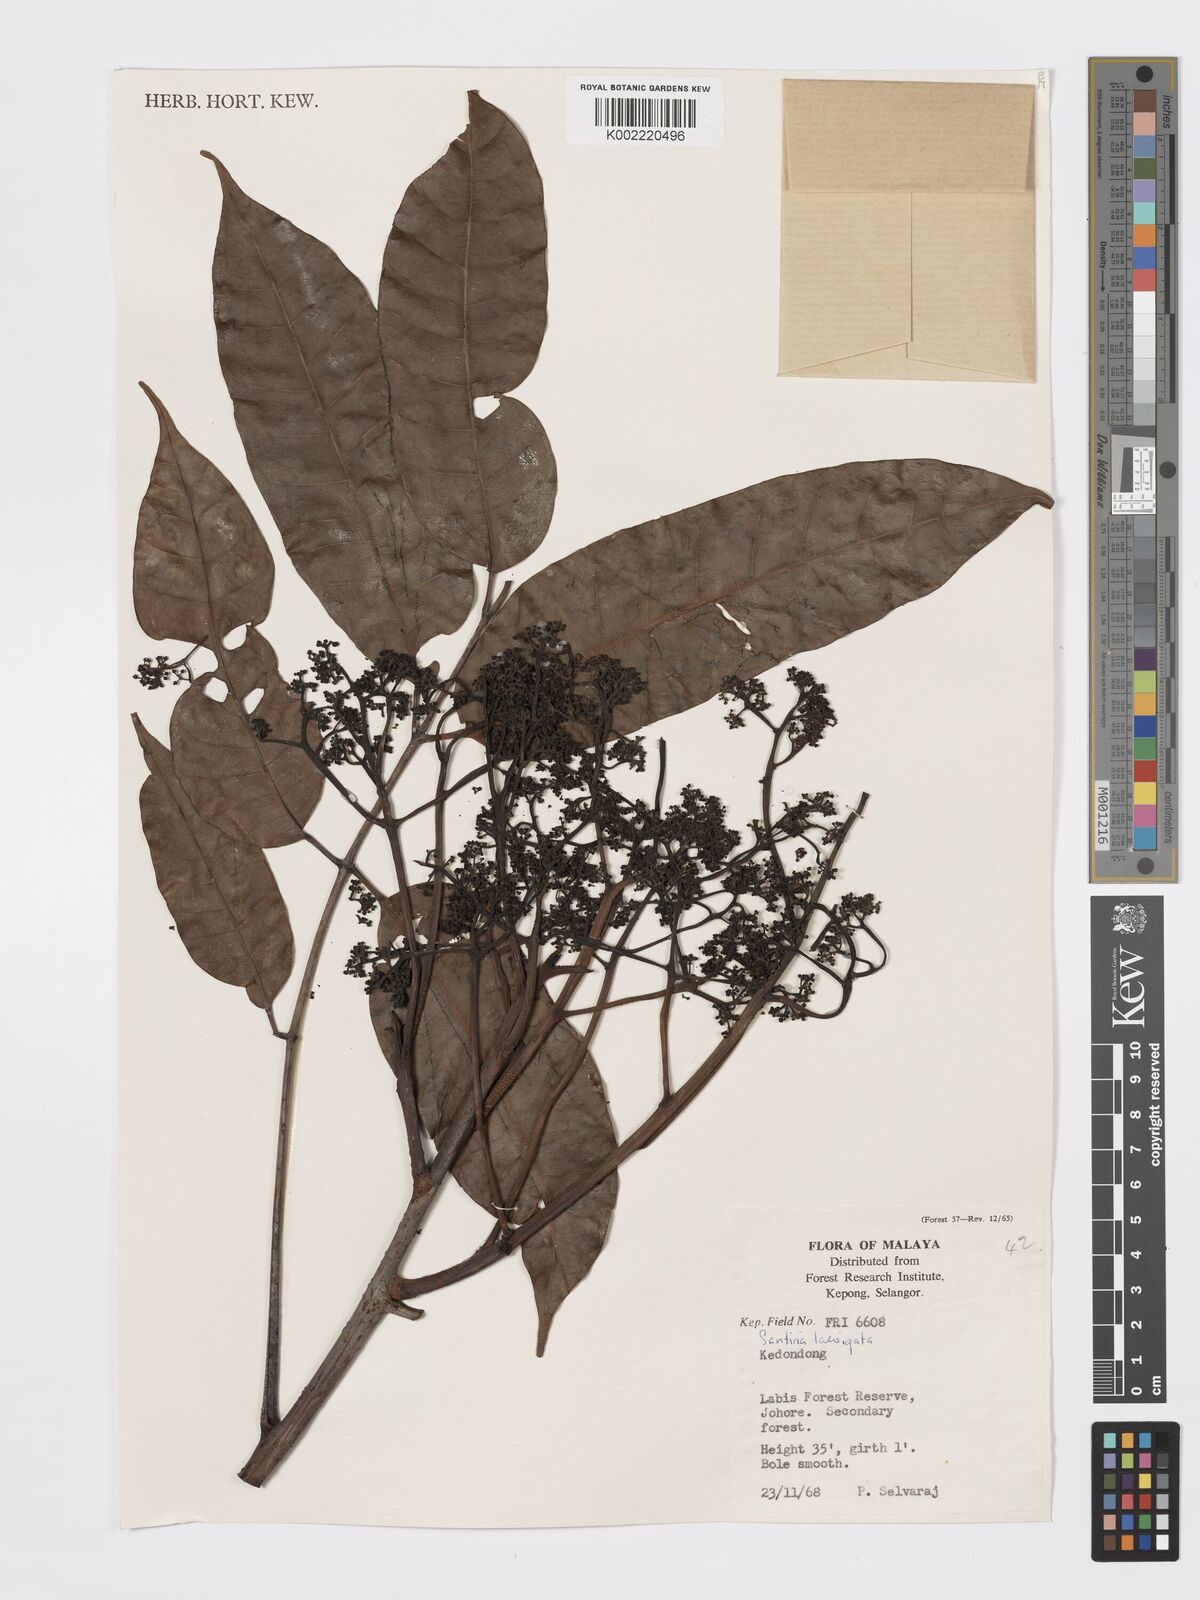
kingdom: Plantae
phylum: Tracheophyta
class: Magnoliopsida
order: Sapindales
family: Burseraceae
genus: Santiria
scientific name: Santiria laevigata
